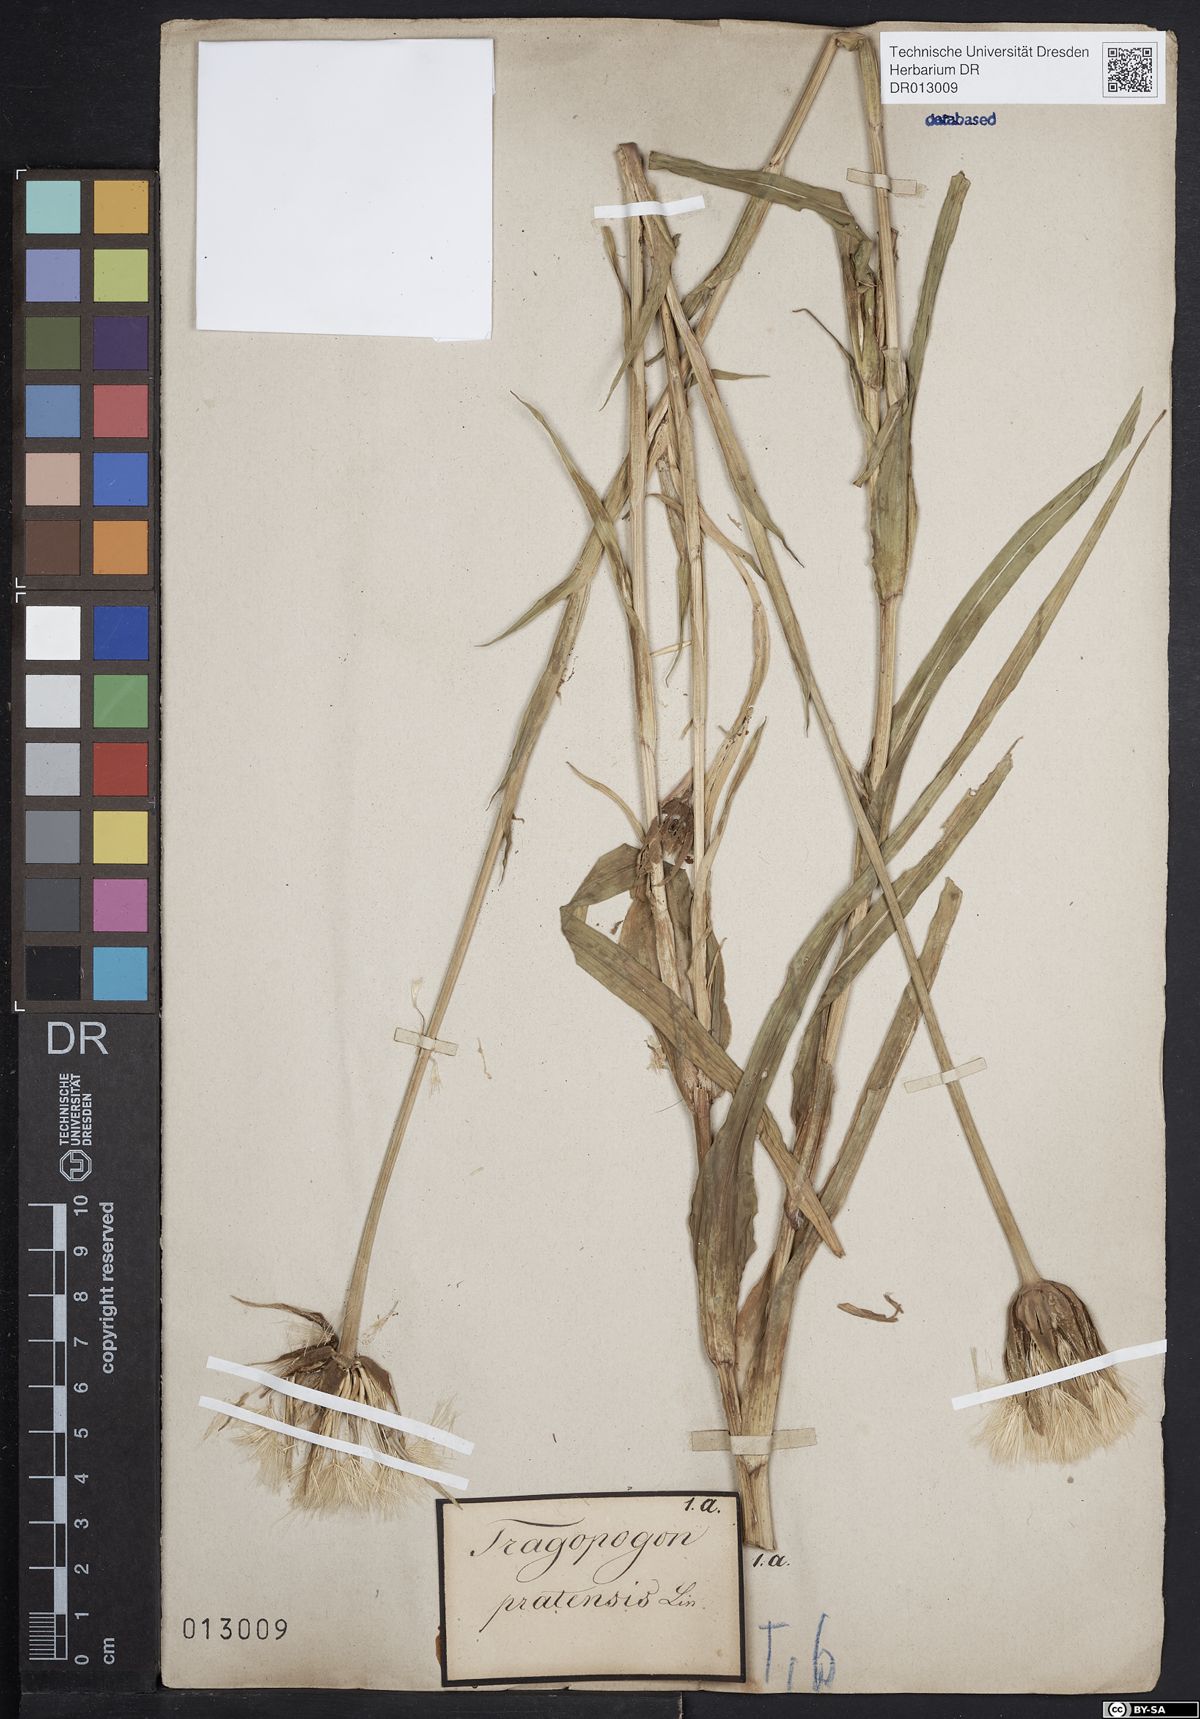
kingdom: Plantae
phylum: Tracheophyta
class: Magnoliopsida
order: Asterales
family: Asteraceae
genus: Tragopogon
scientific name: Tragopogon pratensis
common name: Goat's-beard
